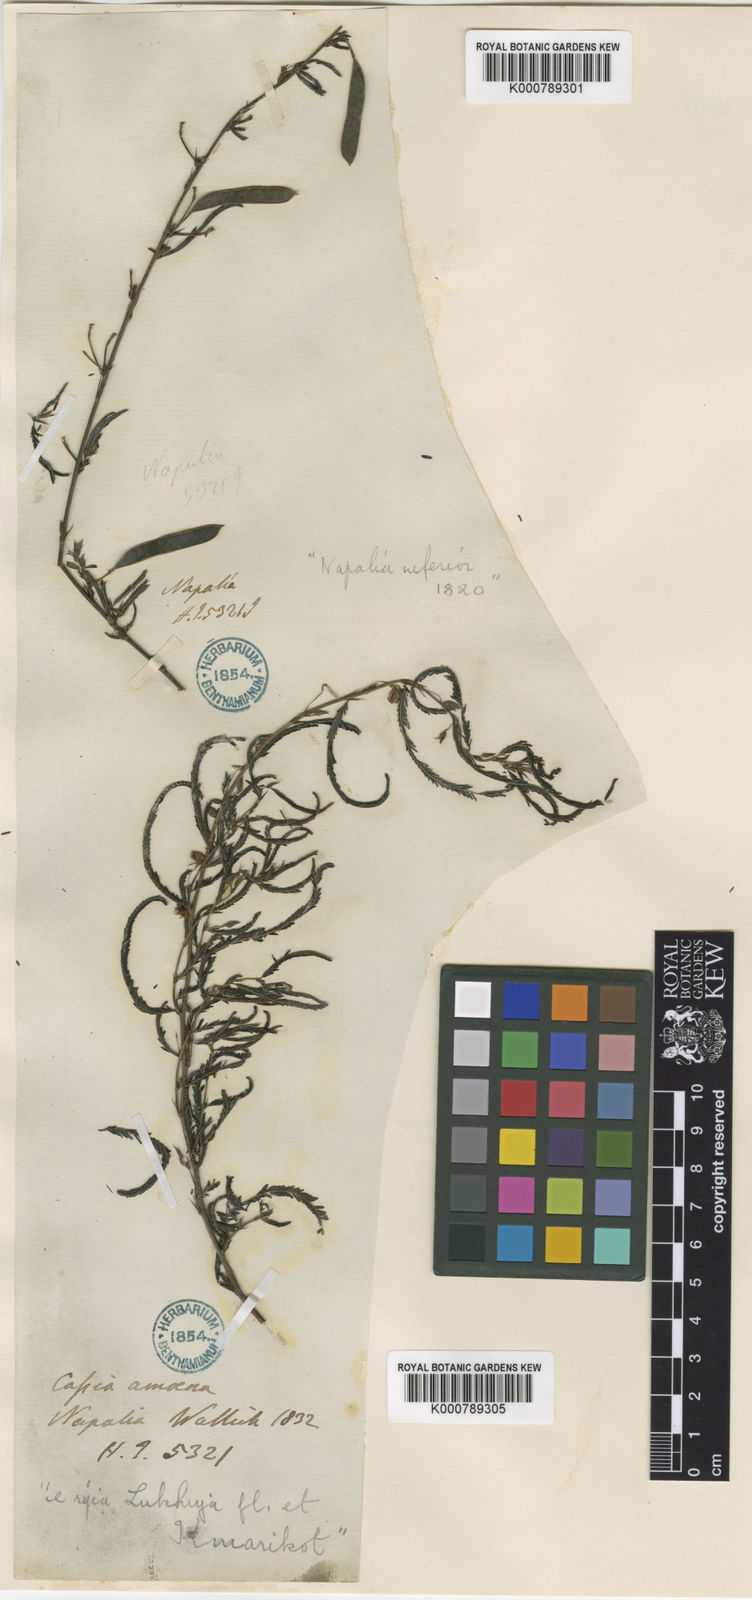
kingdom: Plantae
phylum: Tracheophyta
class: Magnoliopsida
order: Fabales
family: Fabaceae
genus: Chamaecrista
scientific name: Chamaecrista mimosoides
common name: Fish-bone cassia
